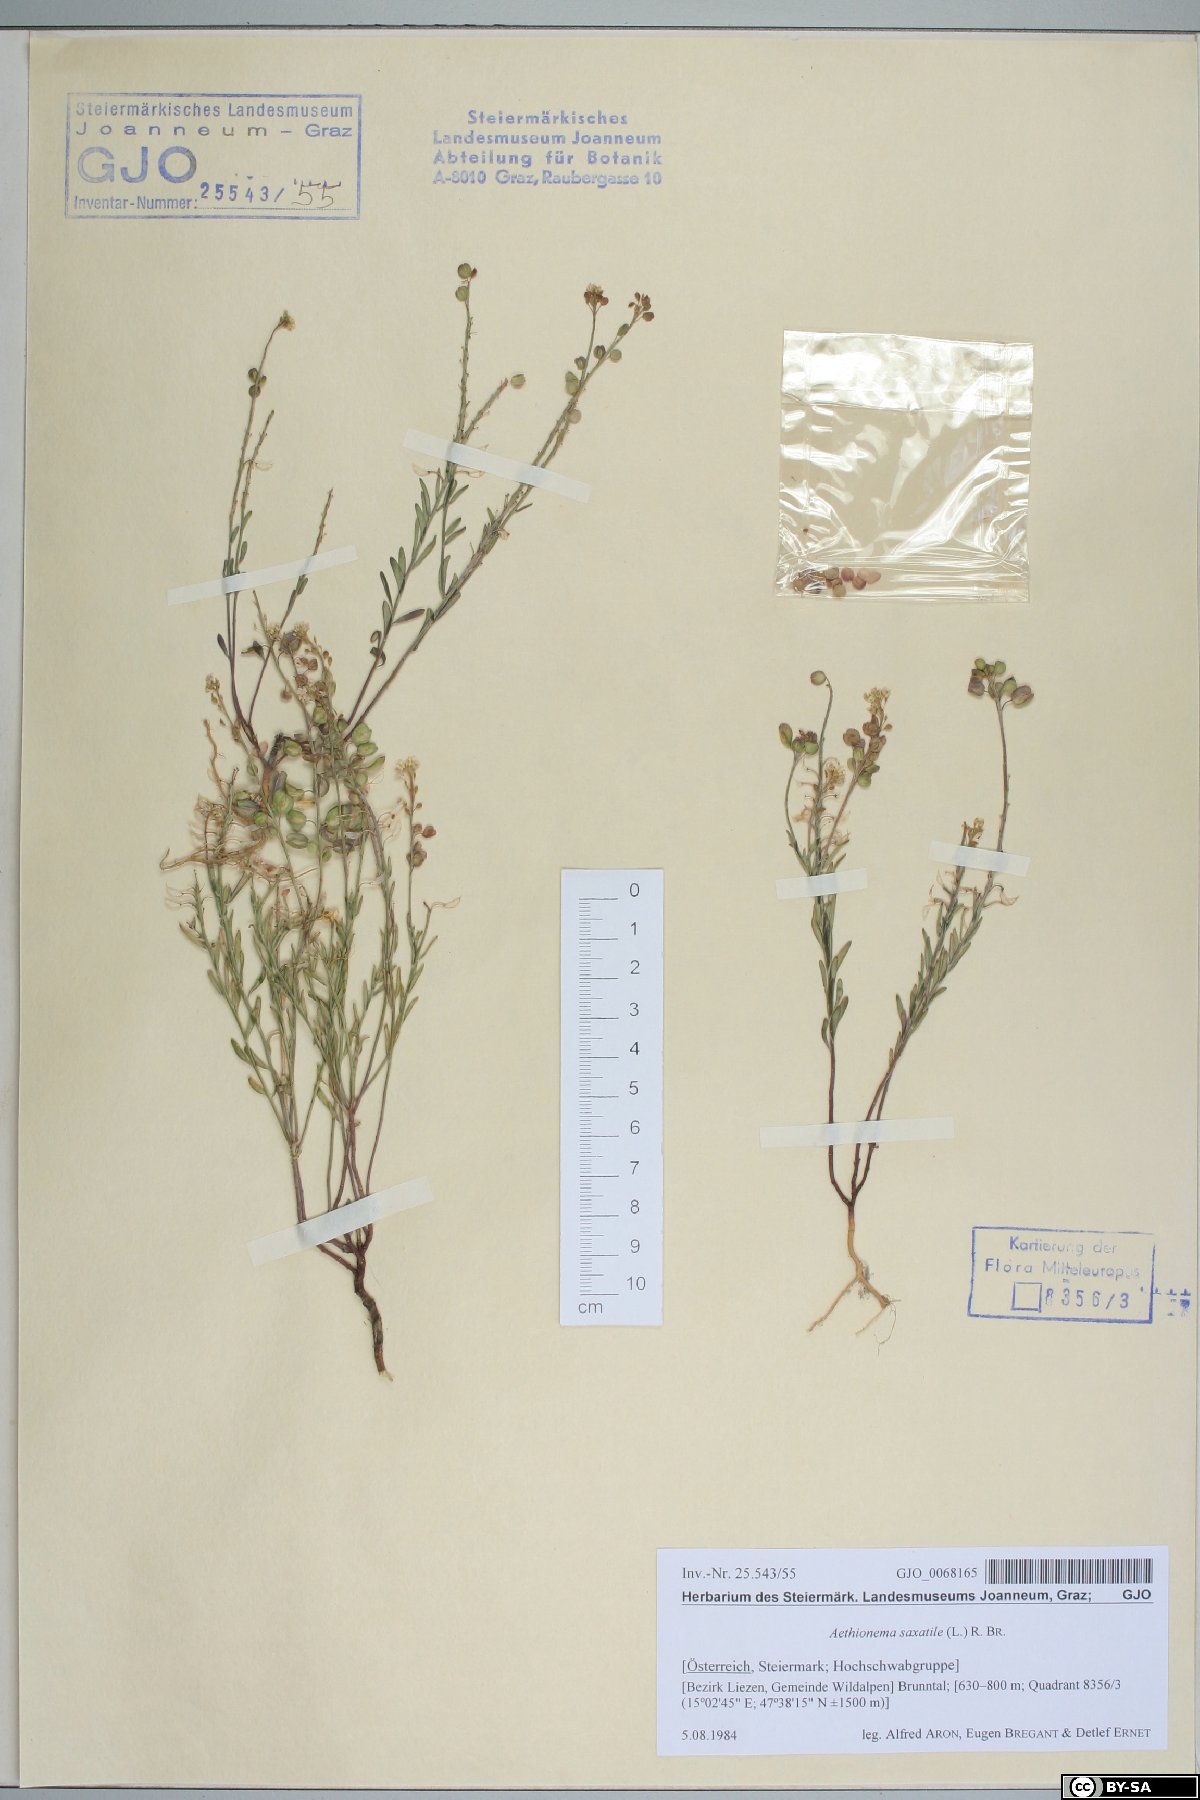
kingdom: Plantae
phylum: Tracheophyta
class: Magnoliopsida
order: Brassicales
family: Brassicaceae
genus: Aethionema
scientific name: Aethionema saxatile
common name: Burnt candytuft
